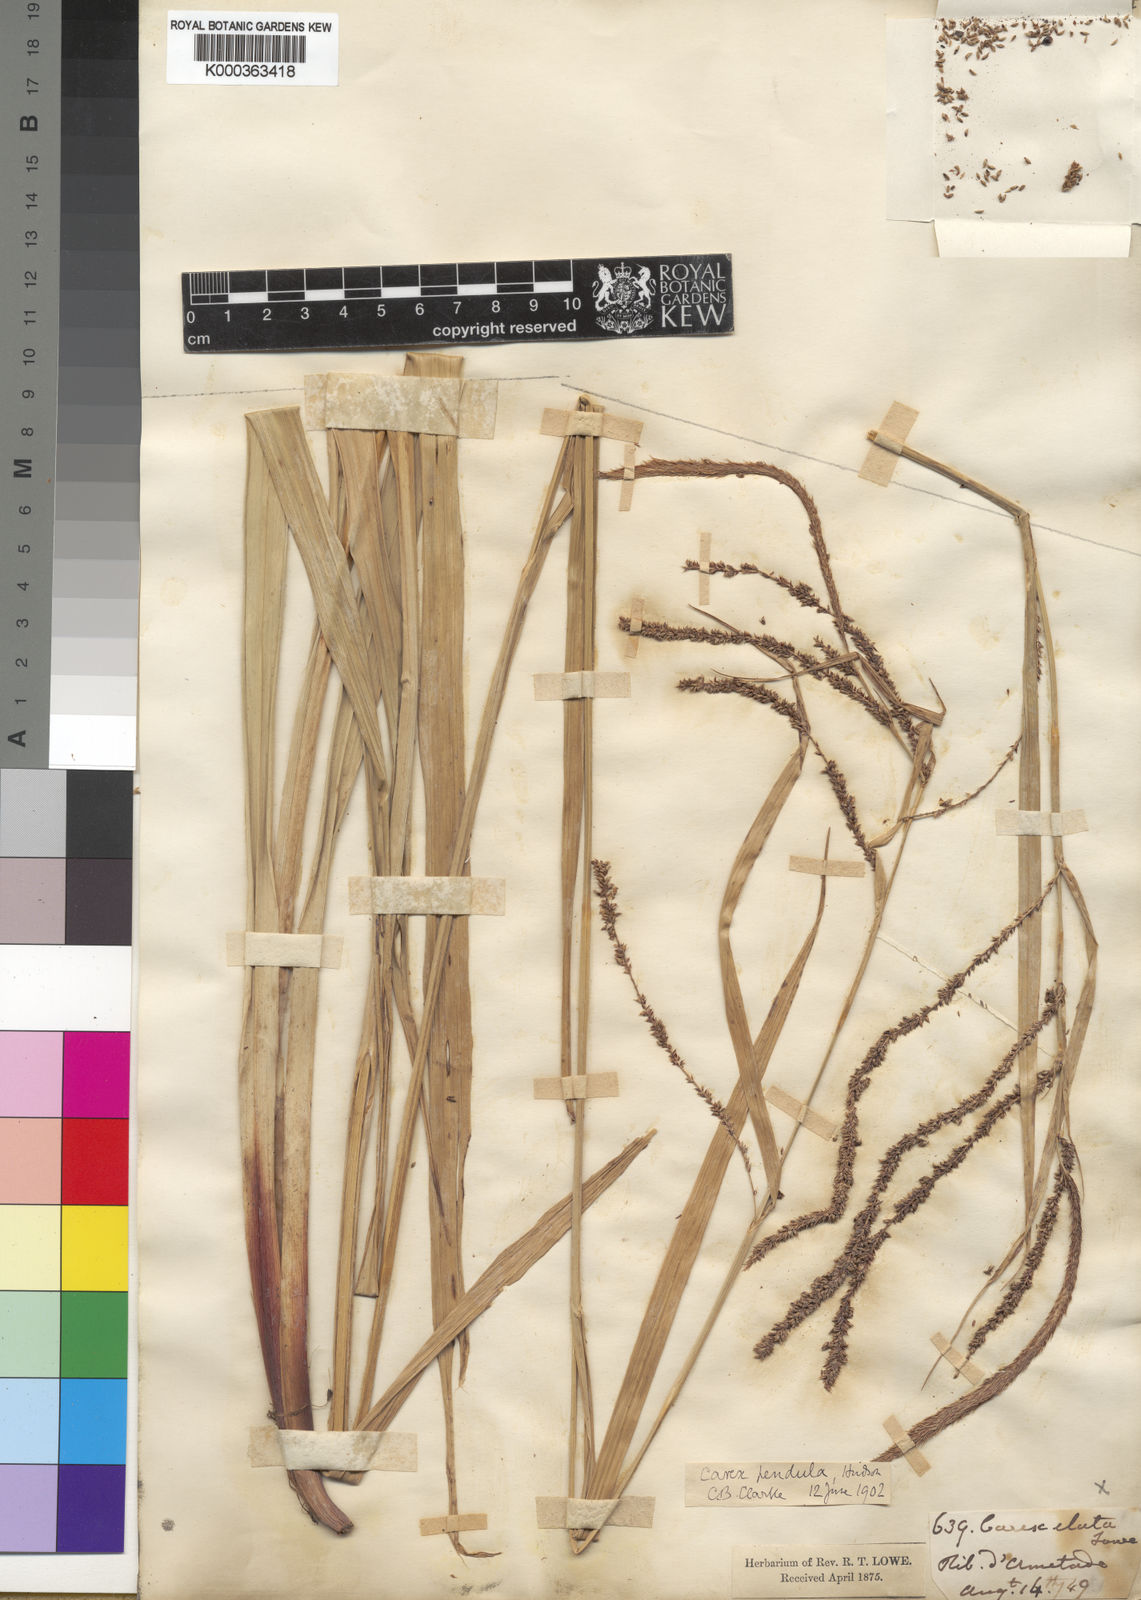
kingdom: Plantae
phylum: Tracheophyta
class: Liliopsida
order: Poales
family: Cyperaceae
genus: Carex
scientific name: Carex pendula
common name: Pendulous sedge
